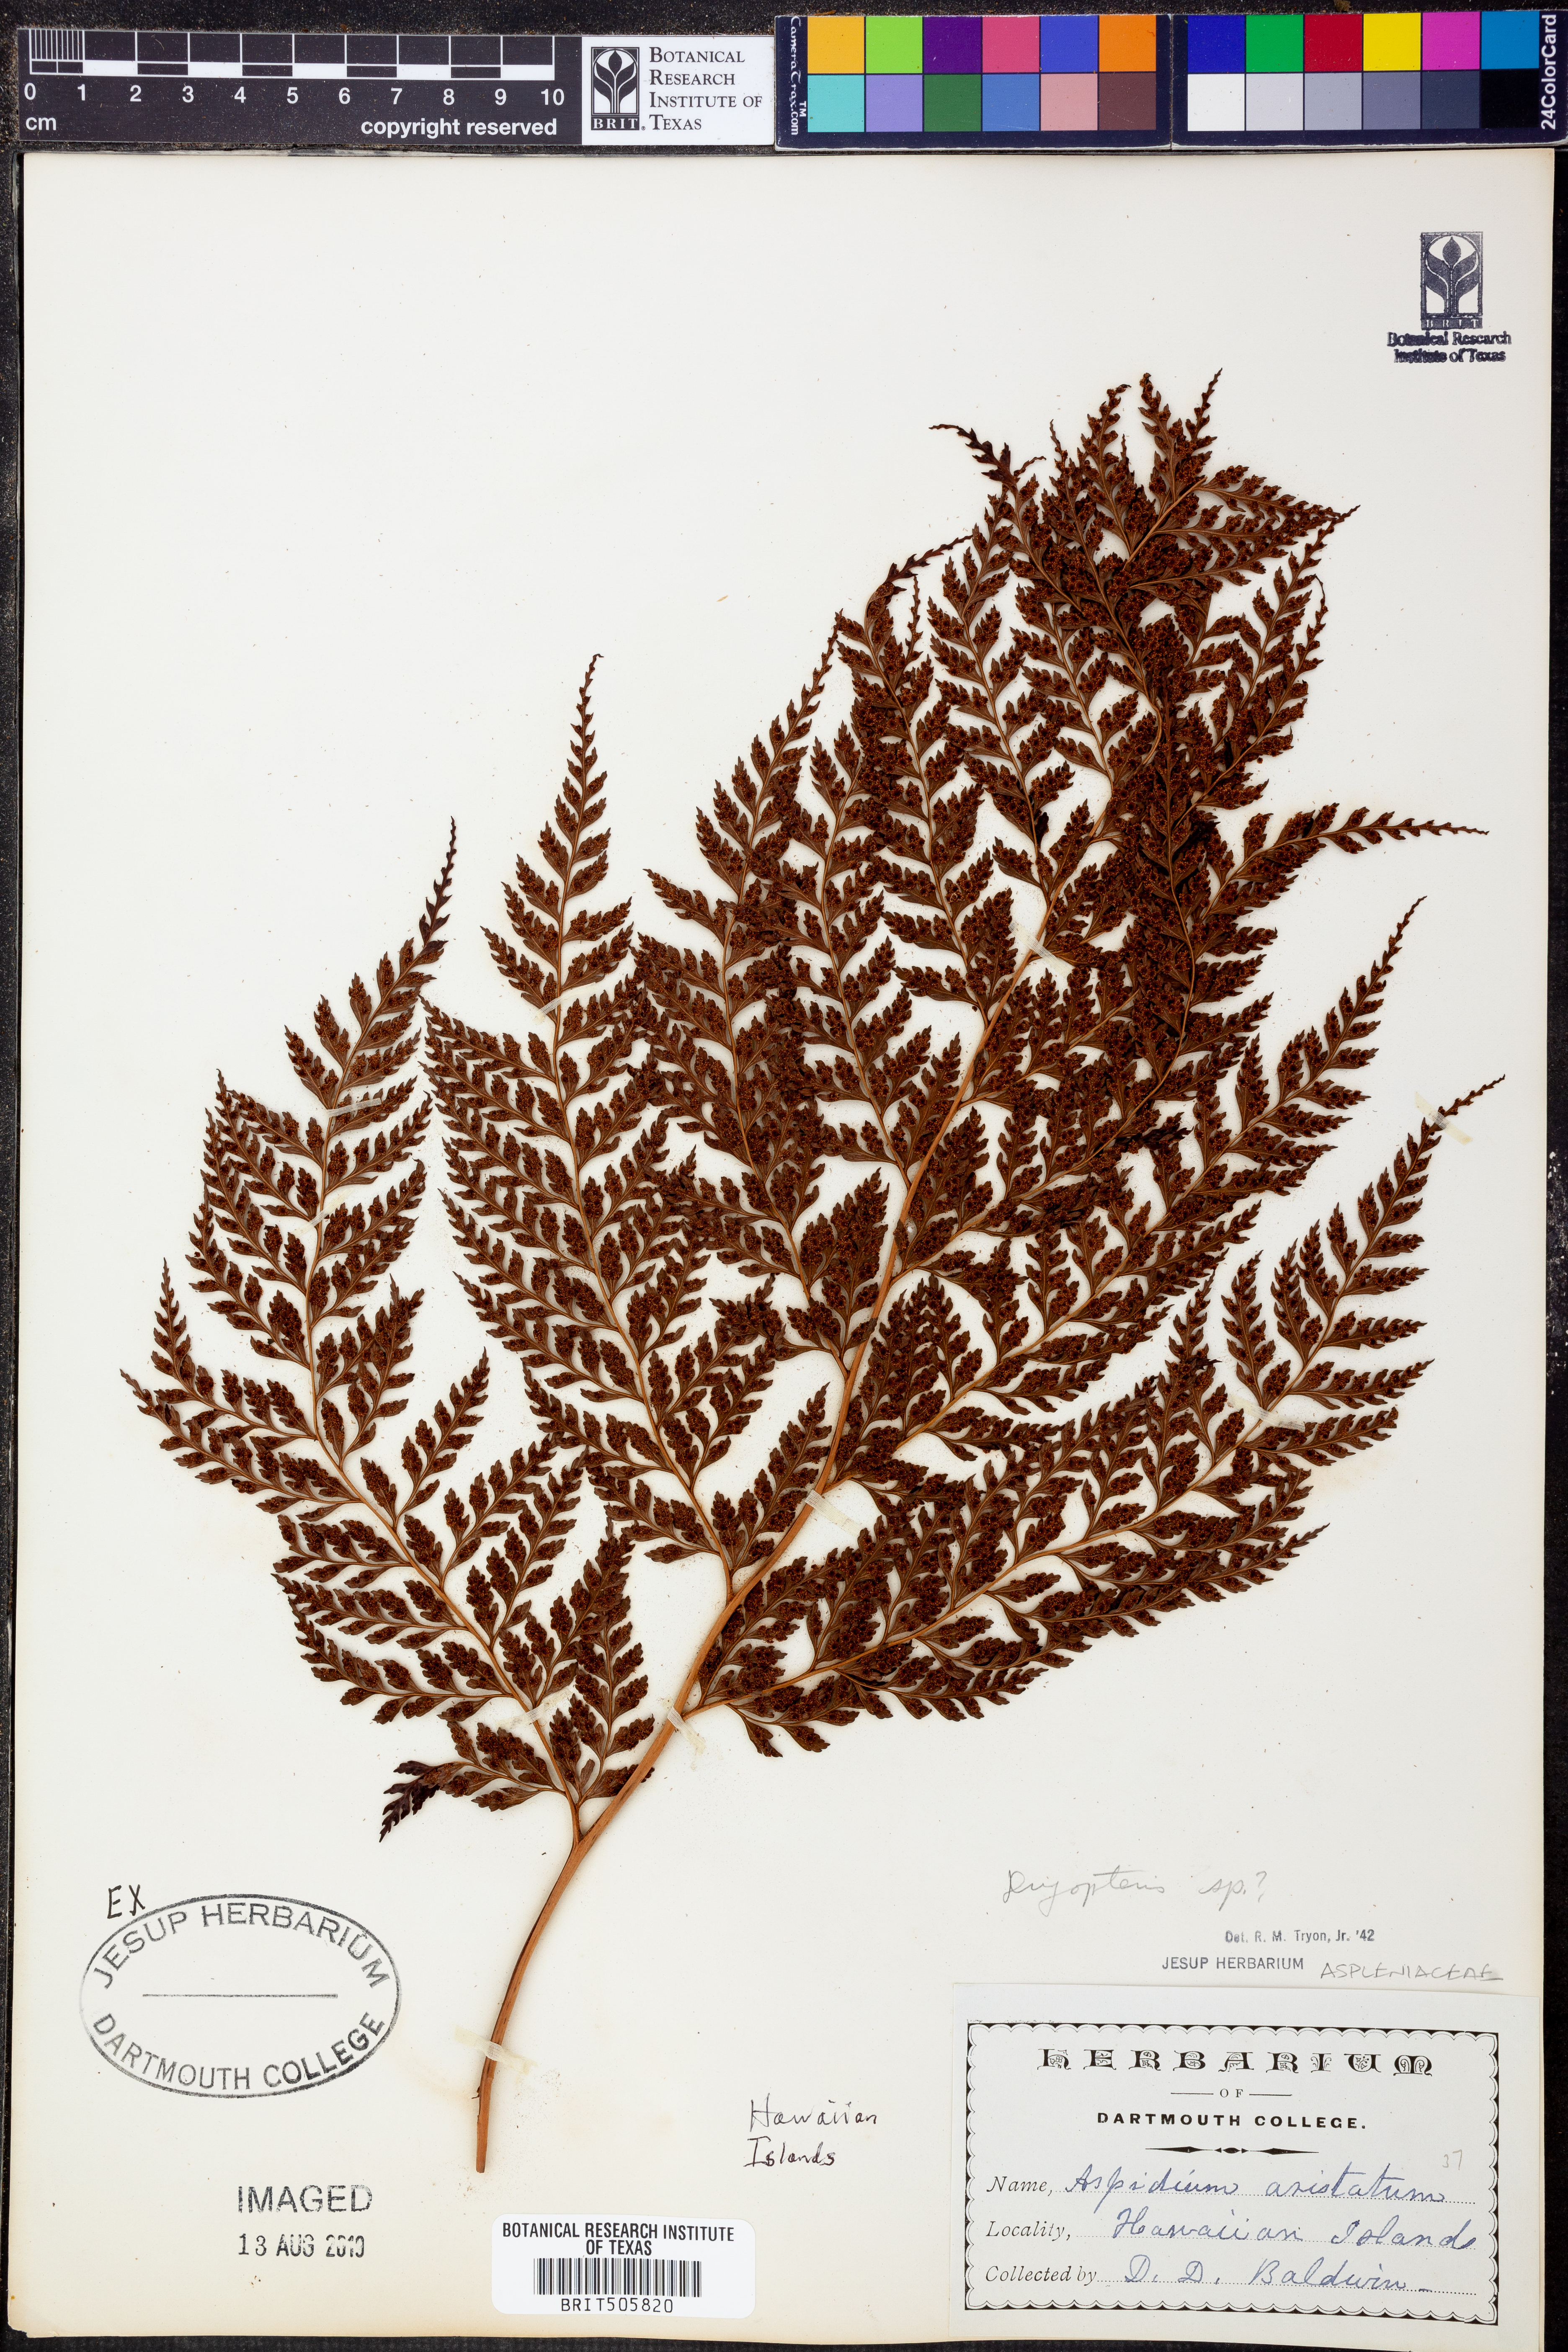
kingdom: Plantae
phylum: Tracheophyta
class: Polypodiopsida
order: Polypodiales
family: Dryopteridaceae
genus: Dryopteris
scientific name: Dryopteris
